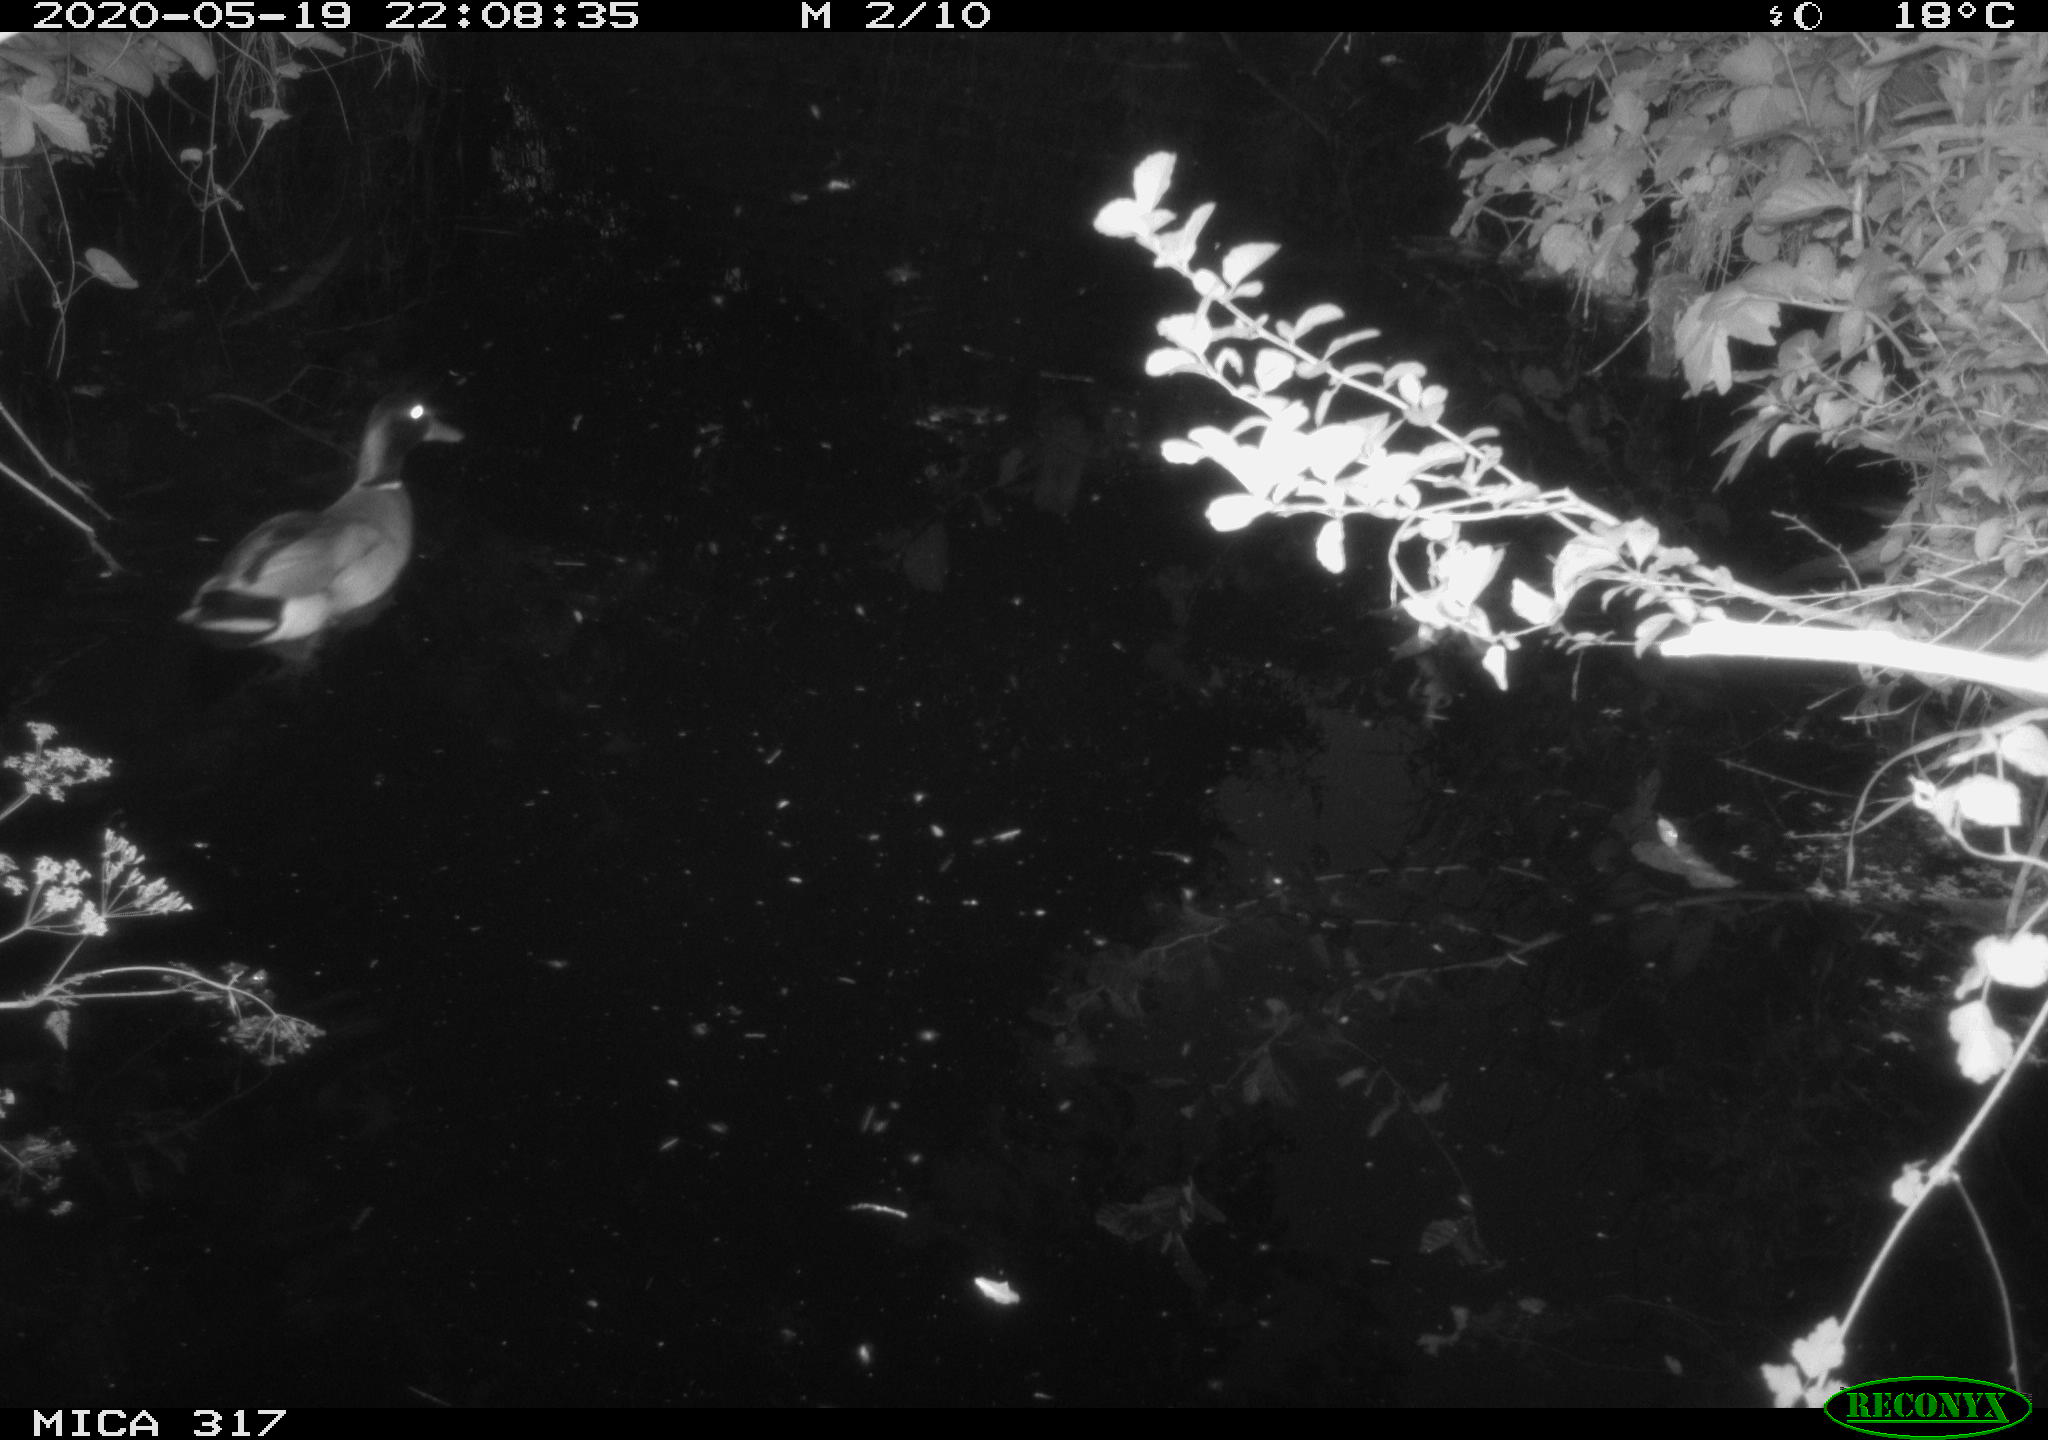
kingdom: Animalia
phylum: Chordata
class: Aves
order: Anseriformes
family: Anatidae
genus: Anas
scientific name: Anas platyrhynchos
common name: Mallard
